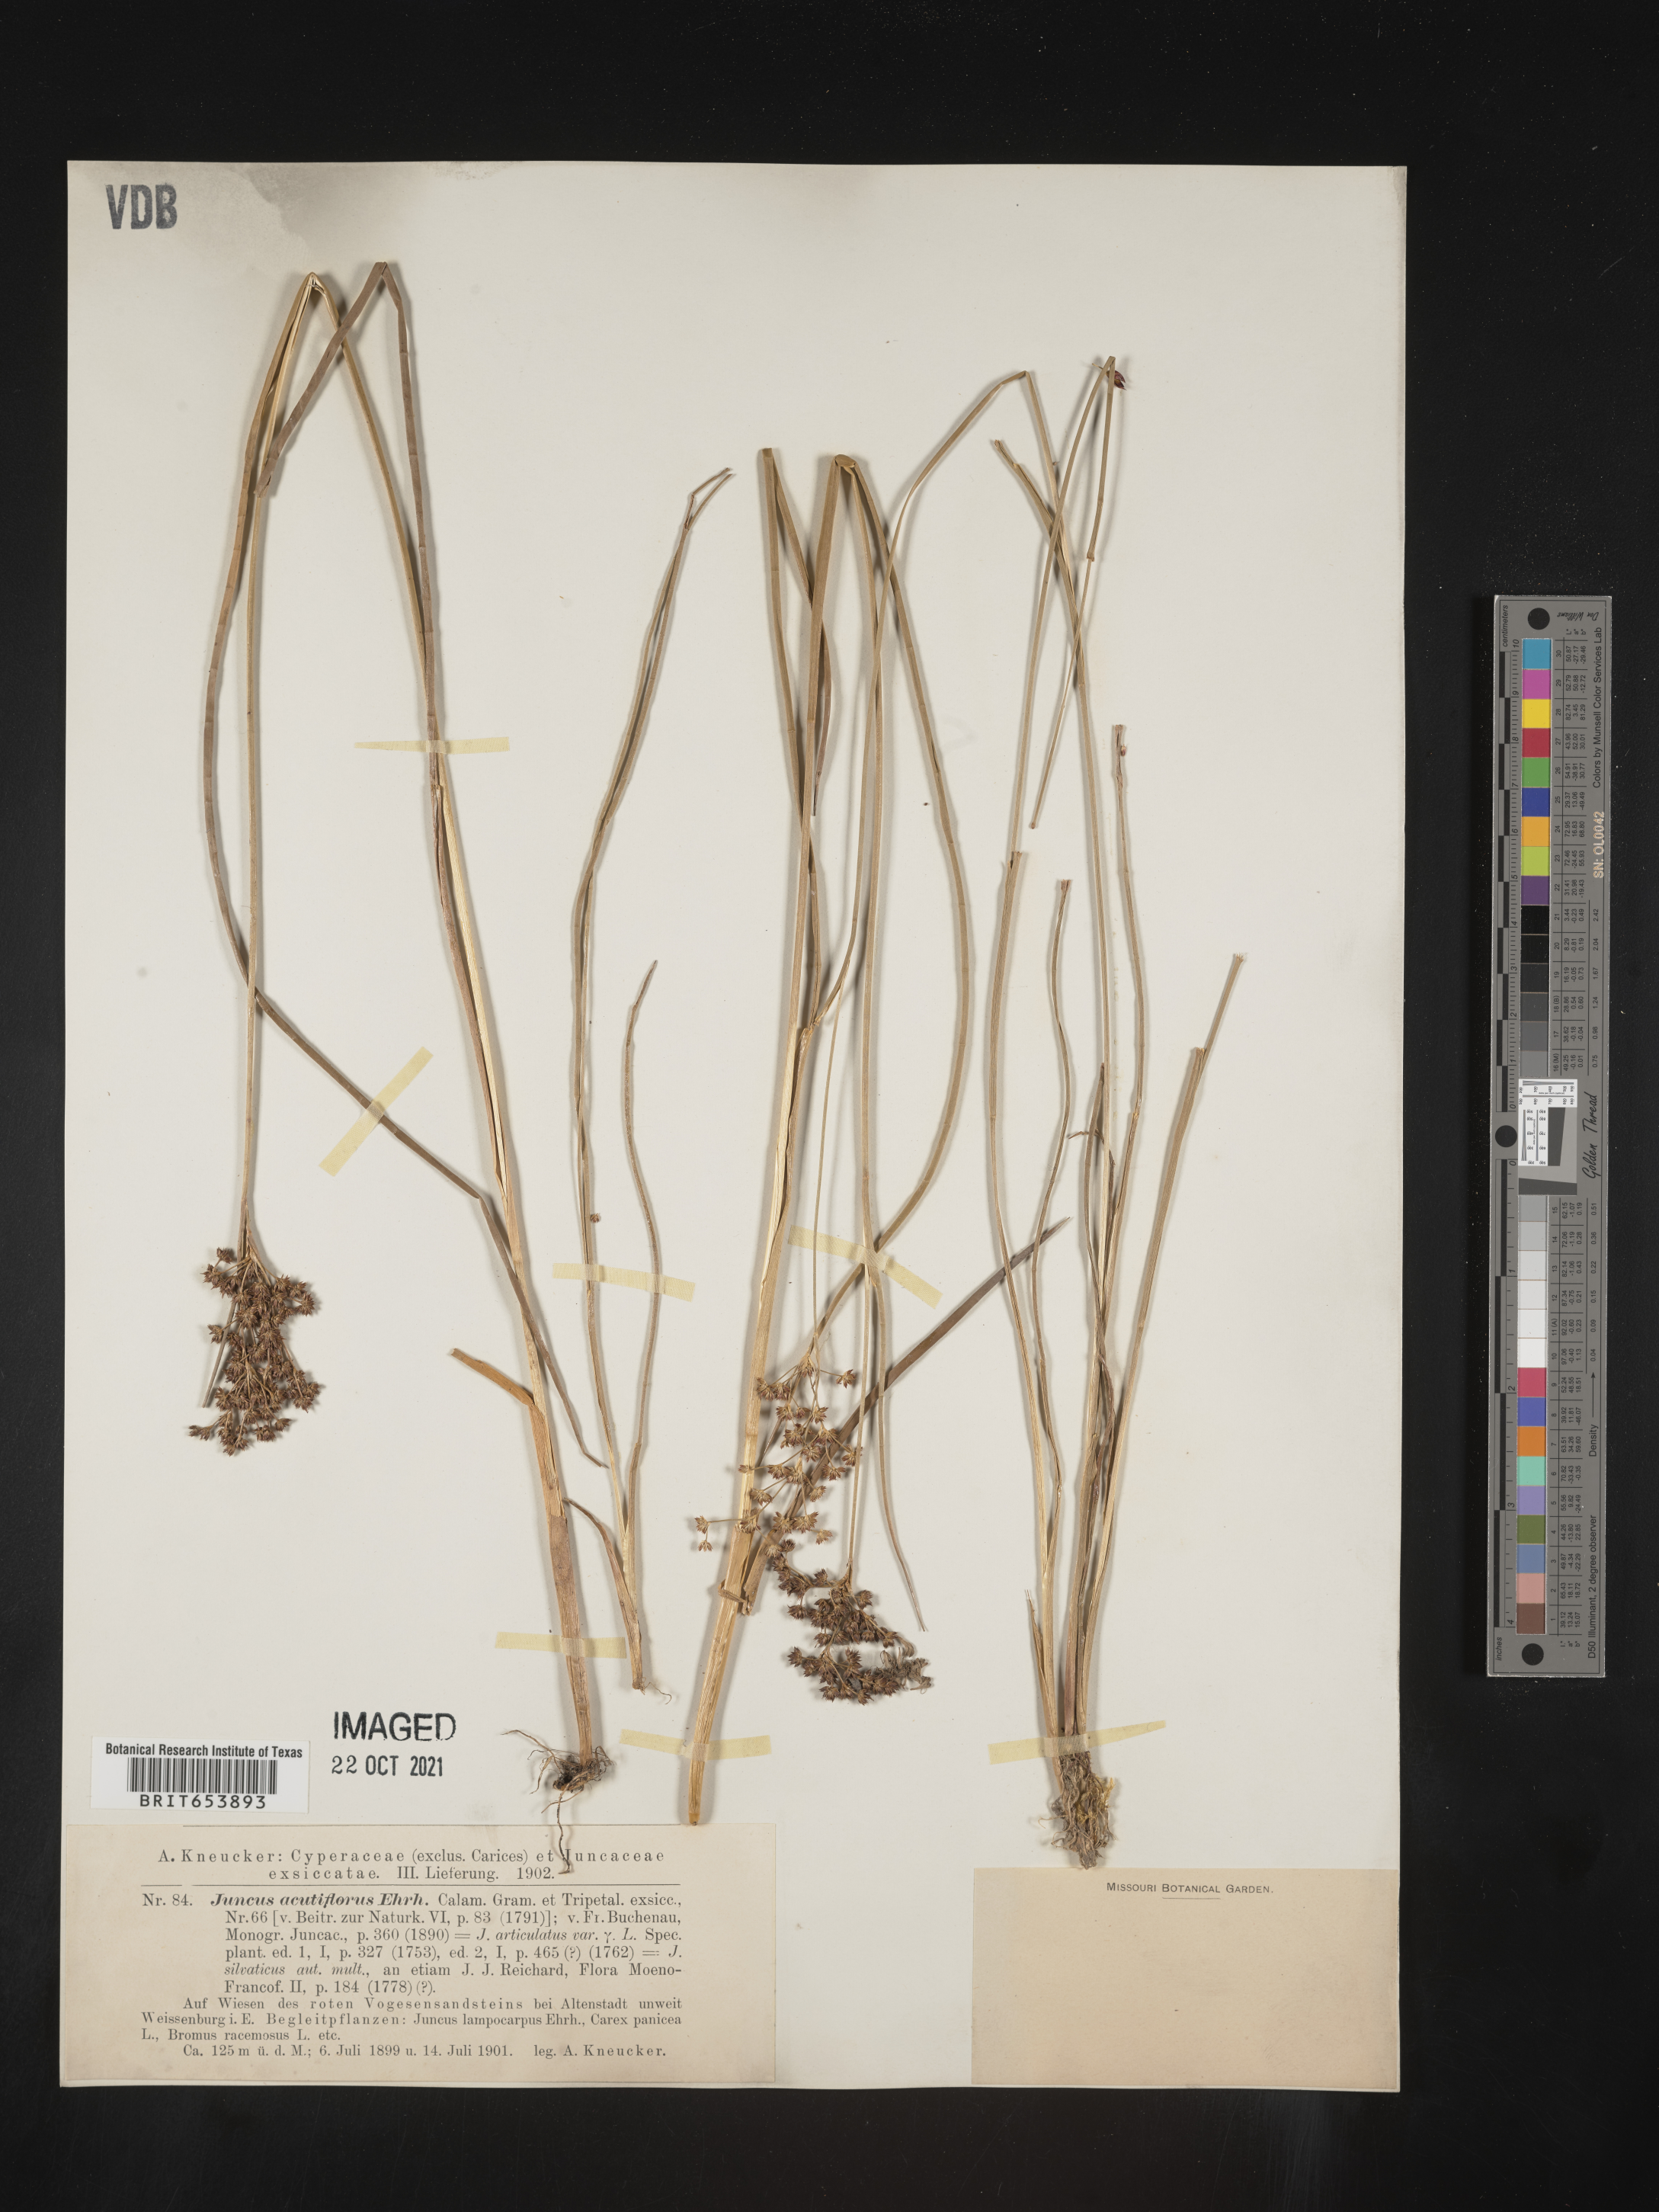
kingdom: Plantae
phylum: Tracheophyta
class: Liliopsida
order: Poales
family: Juncaceae
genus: Juncus
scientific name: Juncus
